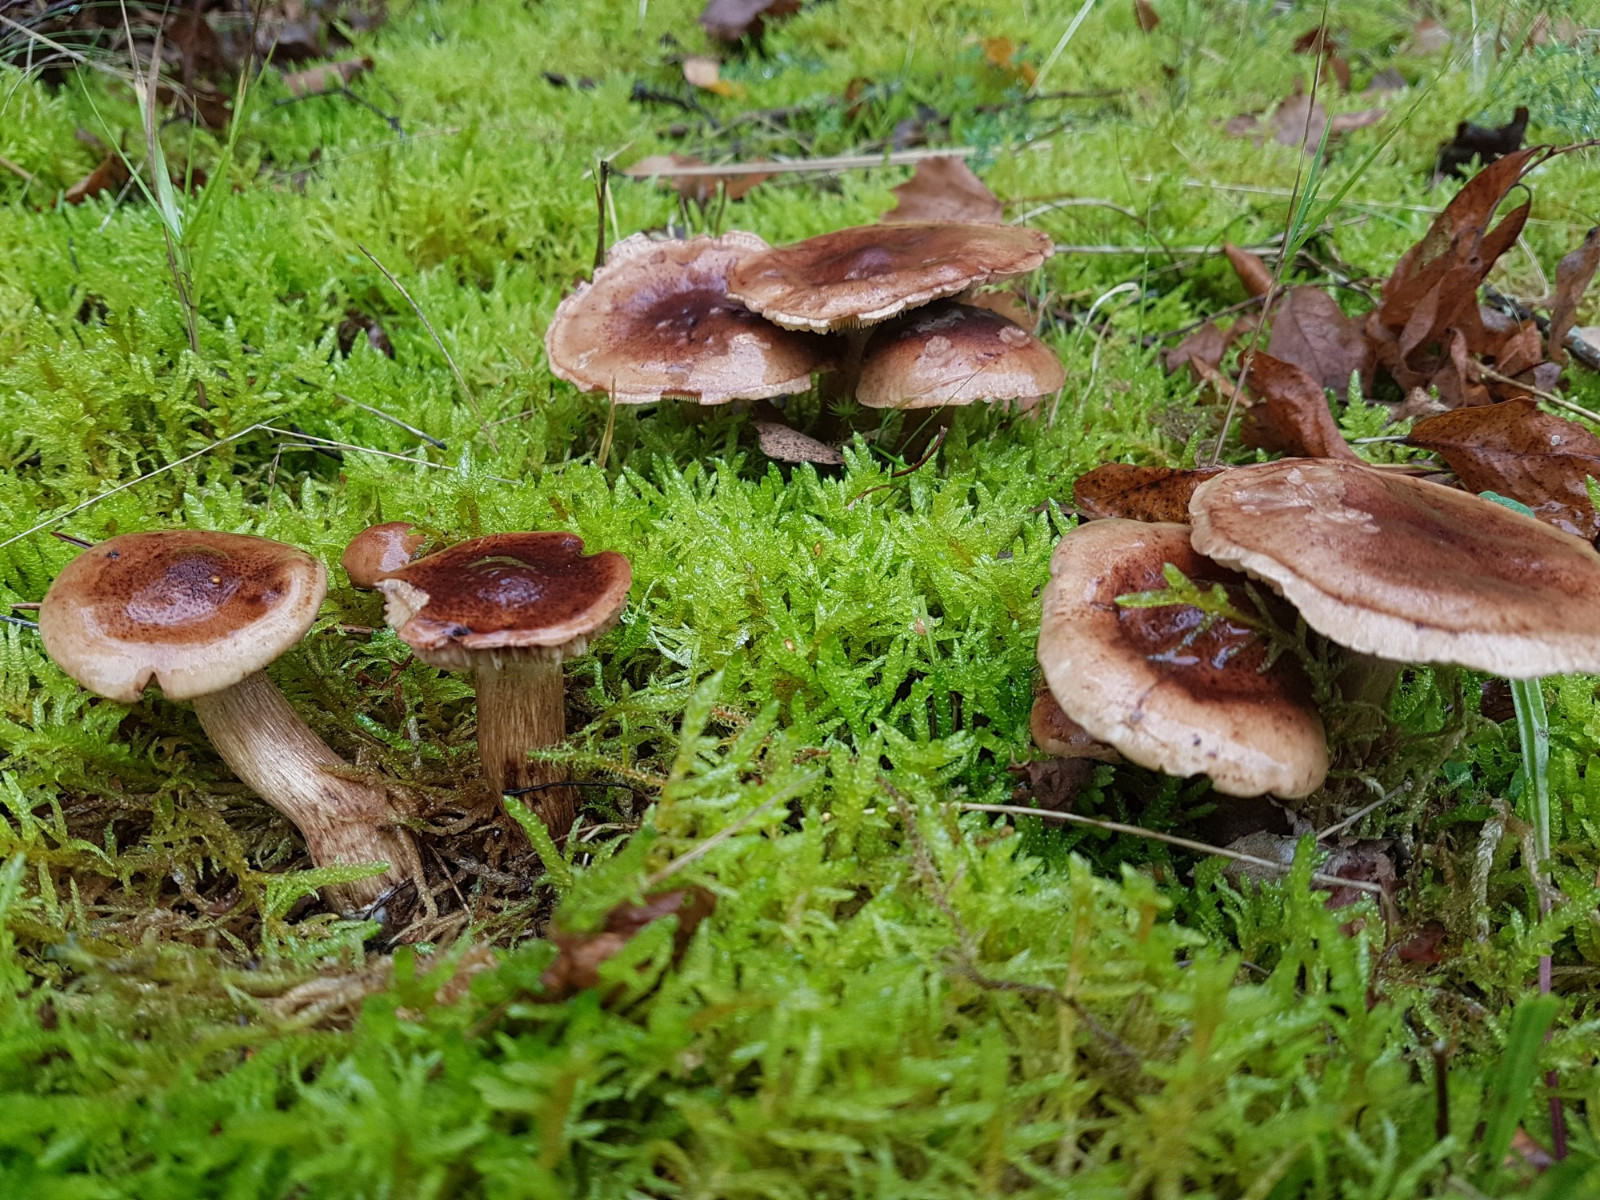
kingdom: Fungi
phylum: Basidiomycota
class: Agaricomycetes
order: Agaricales
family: Tricholomataceae
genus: Tricholoma
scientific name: Tricholoma fulvum
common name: birke-ridderhat
